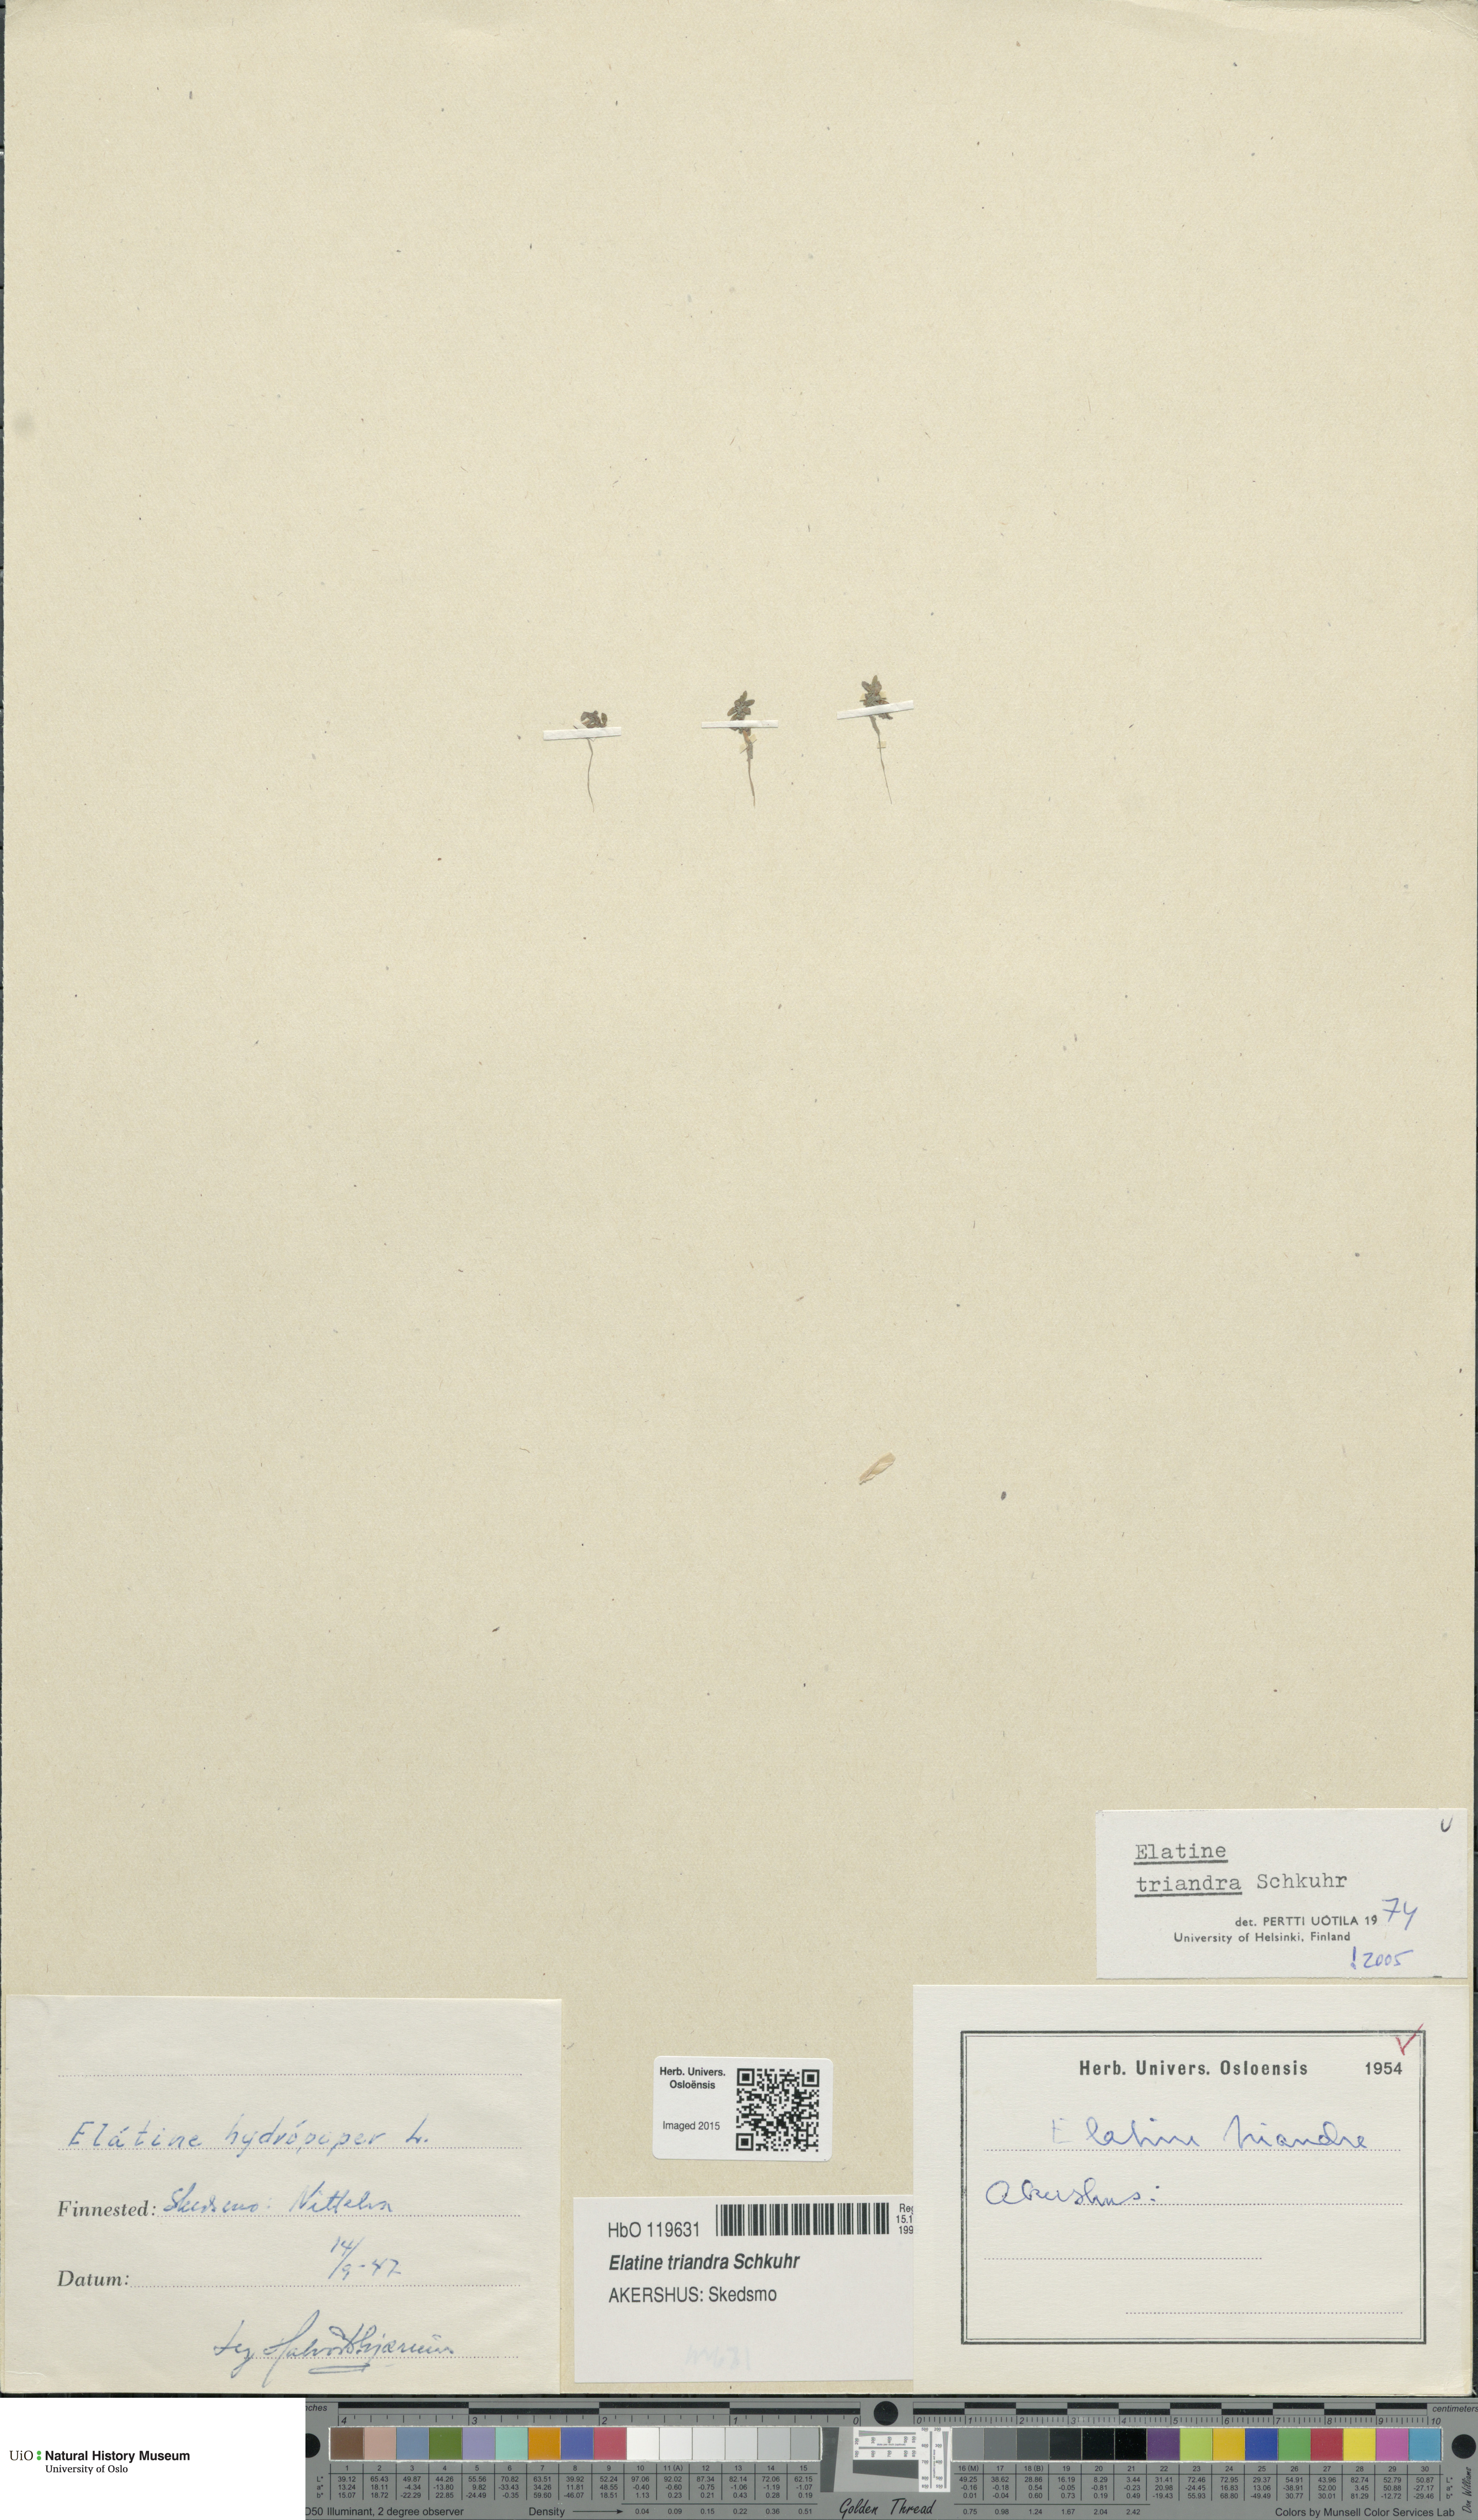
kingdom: Plantae
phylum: Tracheophyta
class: Magnoliopsida
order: Malpighiales
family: Elatinaceae
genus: Elatine
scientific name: Elatine triandra
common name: Three-stamened waterwort
